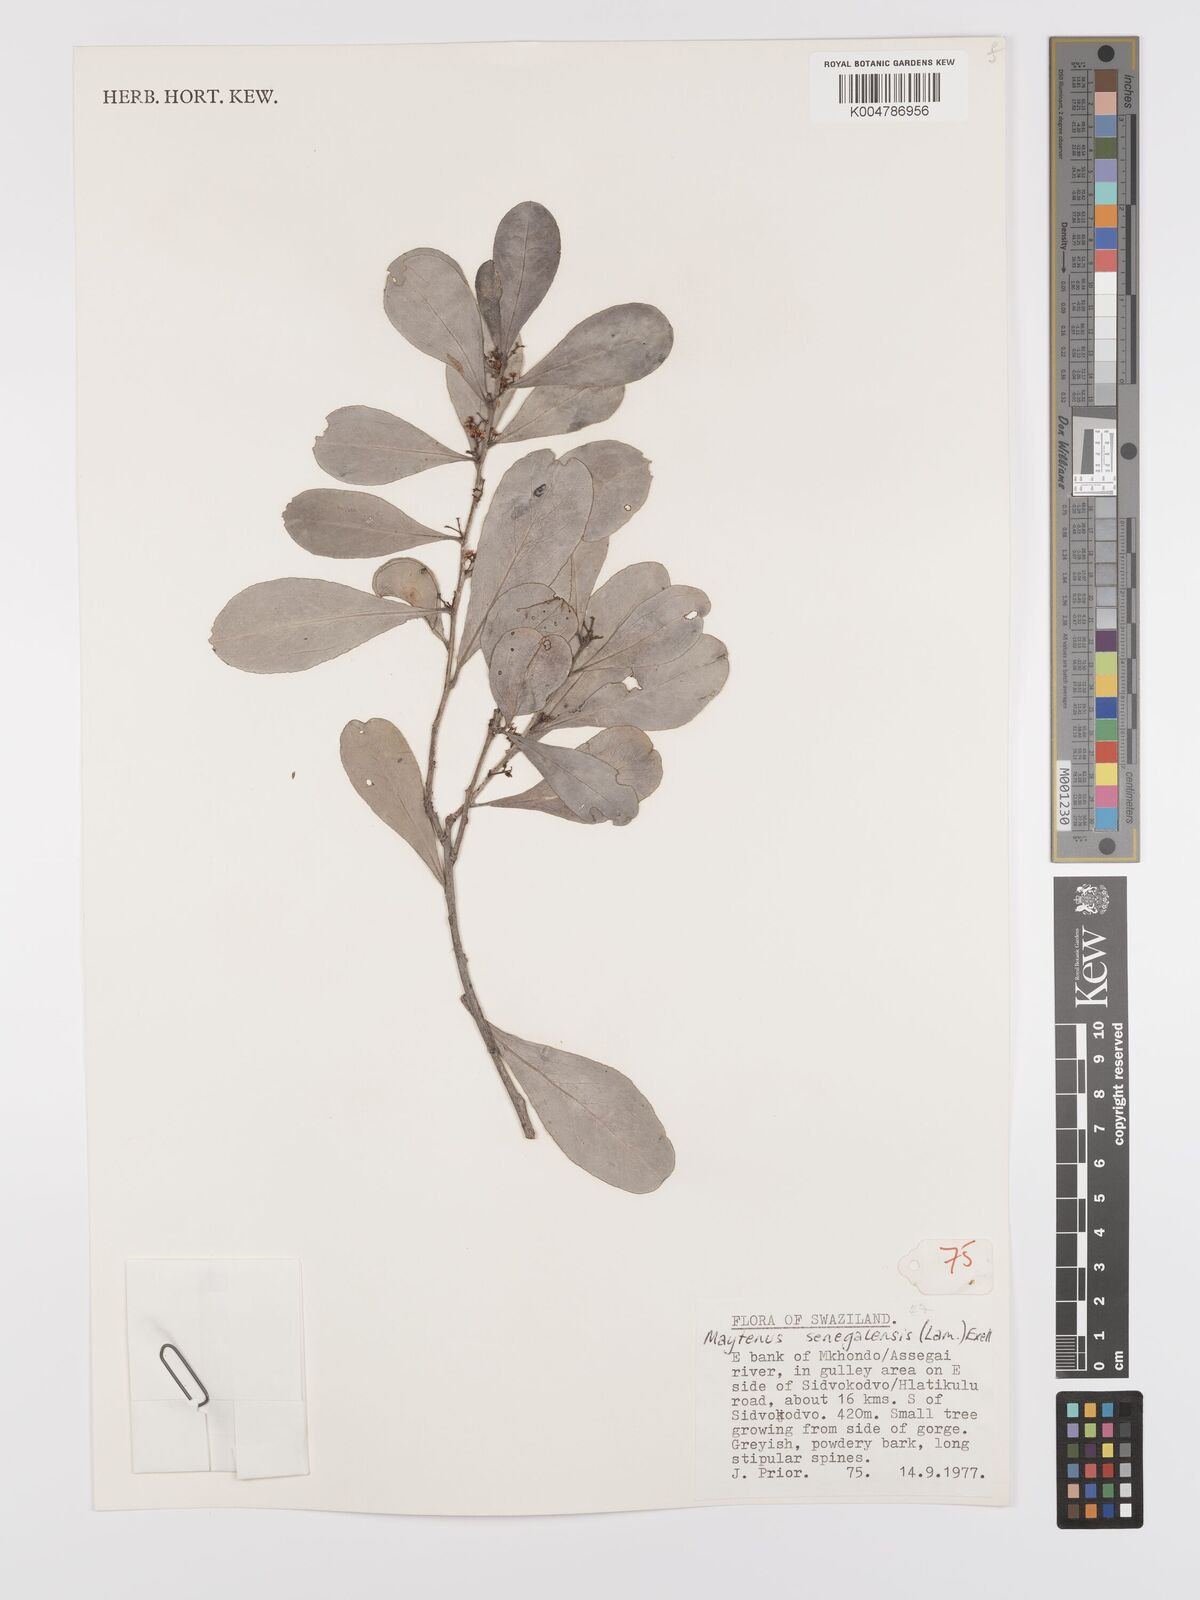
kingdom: Plantae
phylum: Tracheophyta
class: Magnoliopsida
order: Celastrales
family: Celastraceae
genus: Gymnosporia
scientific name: Gymnosporia senegalensis
